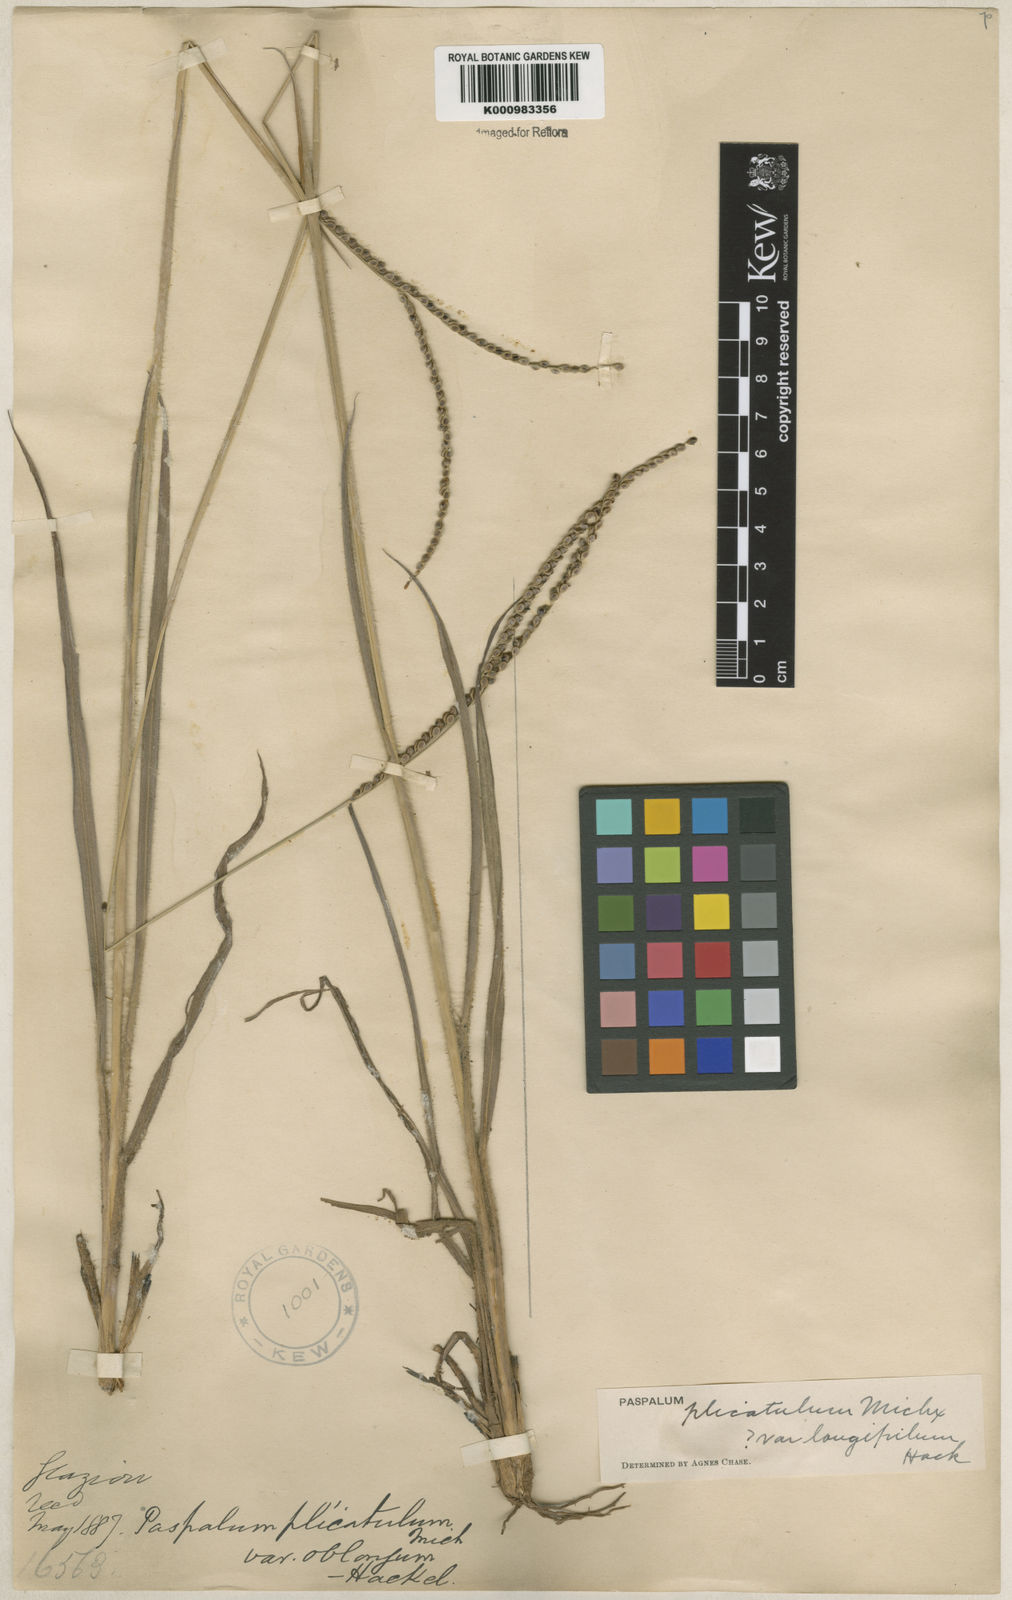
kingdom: Plantae
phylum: Tracheophyta
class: Liliopsida
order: Poales
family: Poaceae
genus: Paspalum
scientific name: Paspalum plicatulum
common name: Top paspalum
